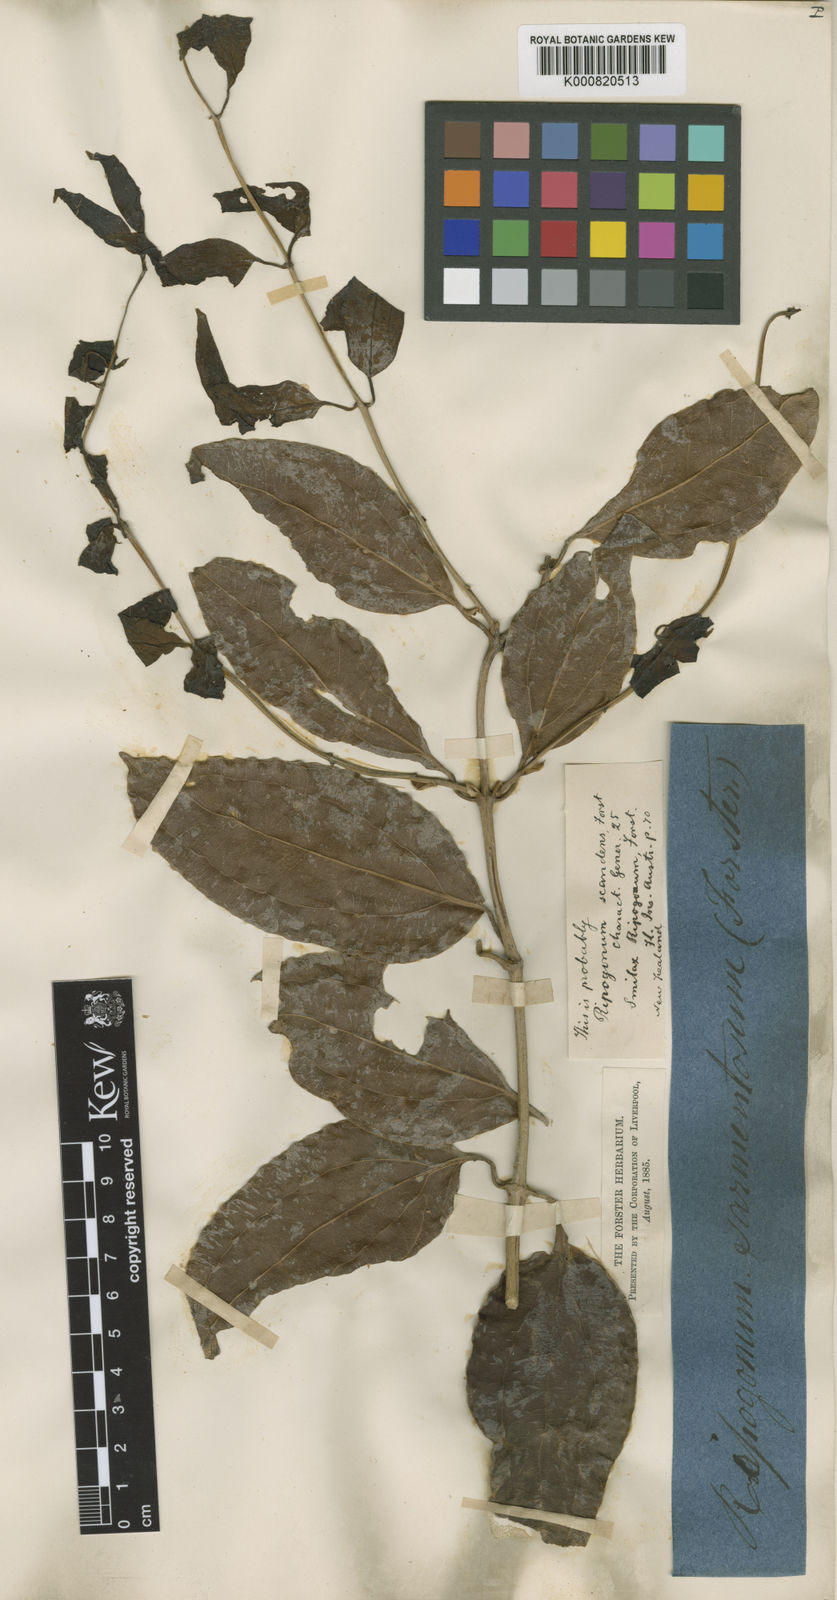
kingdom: Plantae
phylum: Tracheophyta
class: Liliopsida
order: Liliales
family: Ripogonaceae
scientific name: Ripogonaceae
